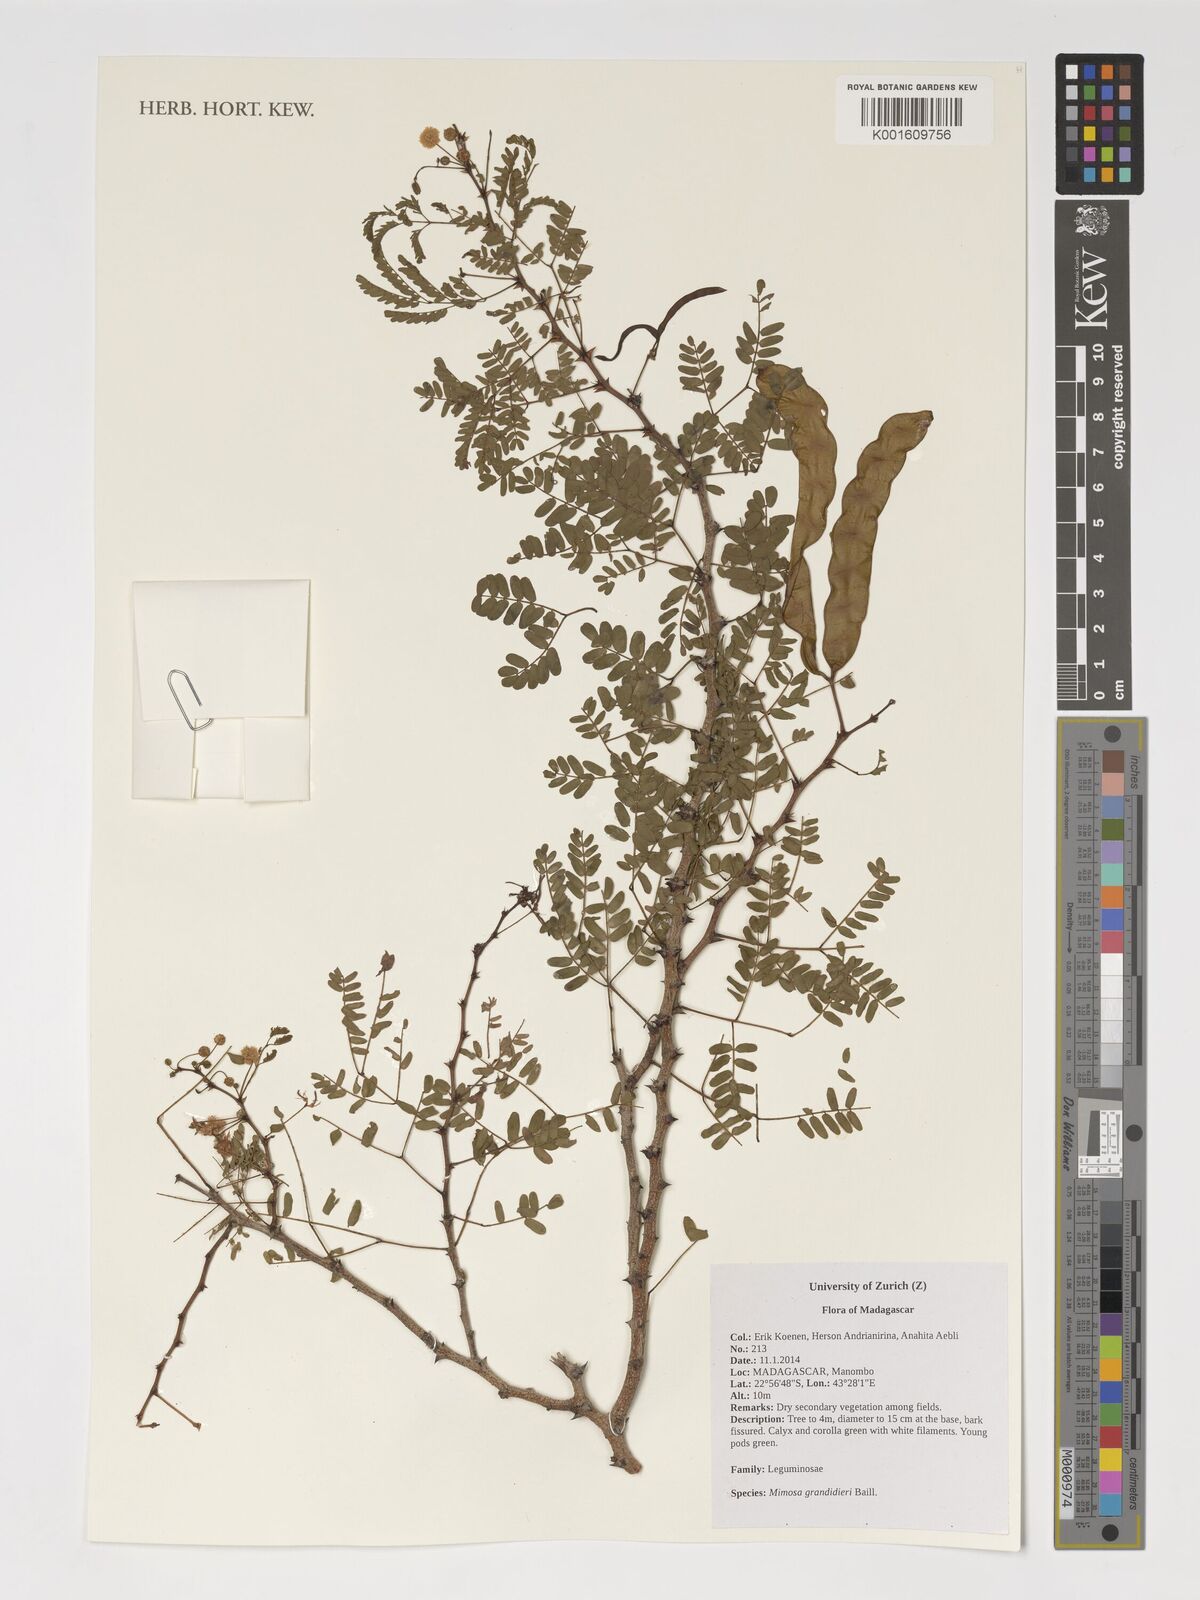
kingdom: Plantae
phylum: Tracheophyta
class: Magnoliopsida
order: Fabales
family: Fabaceae
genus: Mimosa
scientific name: Mimosa grandidieri
